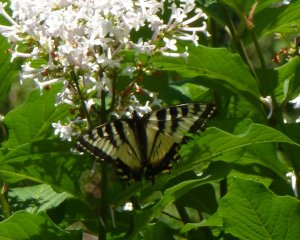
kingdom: Animalia
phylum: Arthropoda
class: Insecta
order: Lepidoptera
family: Papilionidae
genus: Pterourus
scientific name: Pterourus canadensis
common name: Canadian Tiger Swallowtail
